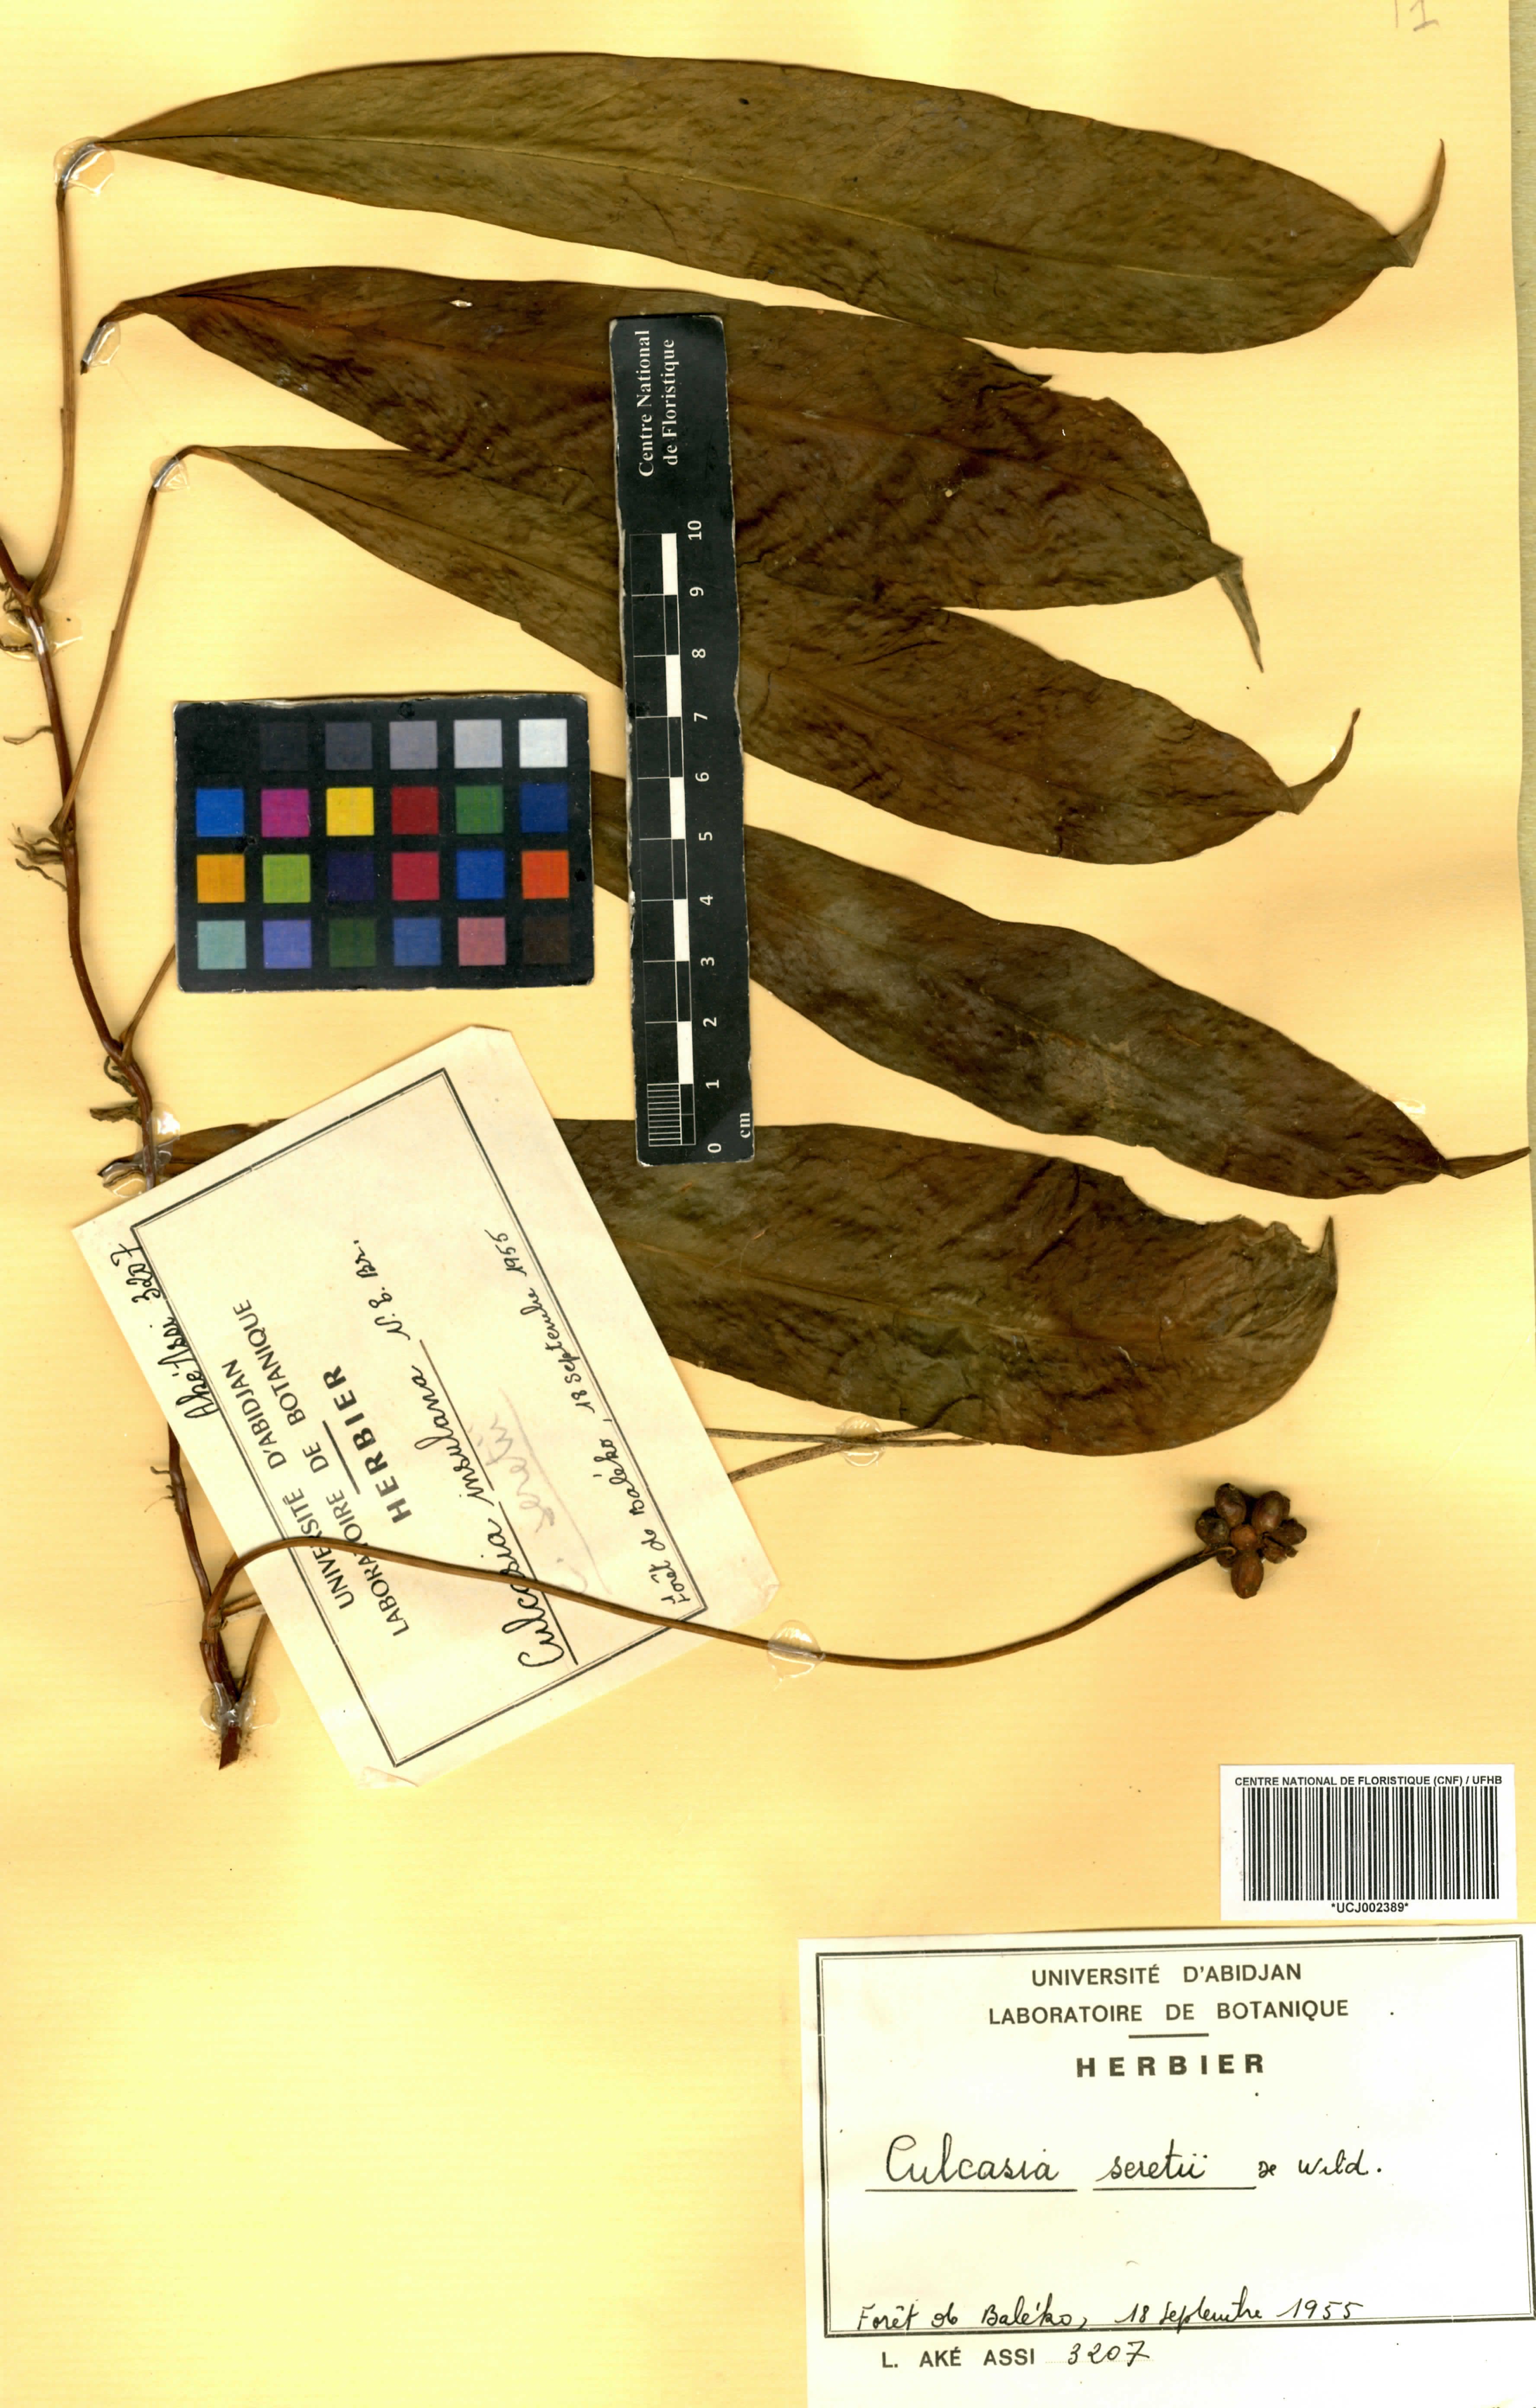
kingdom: Plantae
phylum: Tracheophyta
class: Liliopsida
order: Alismatales
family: Araceae
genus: Culcasia
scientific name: Culcasia seretii
